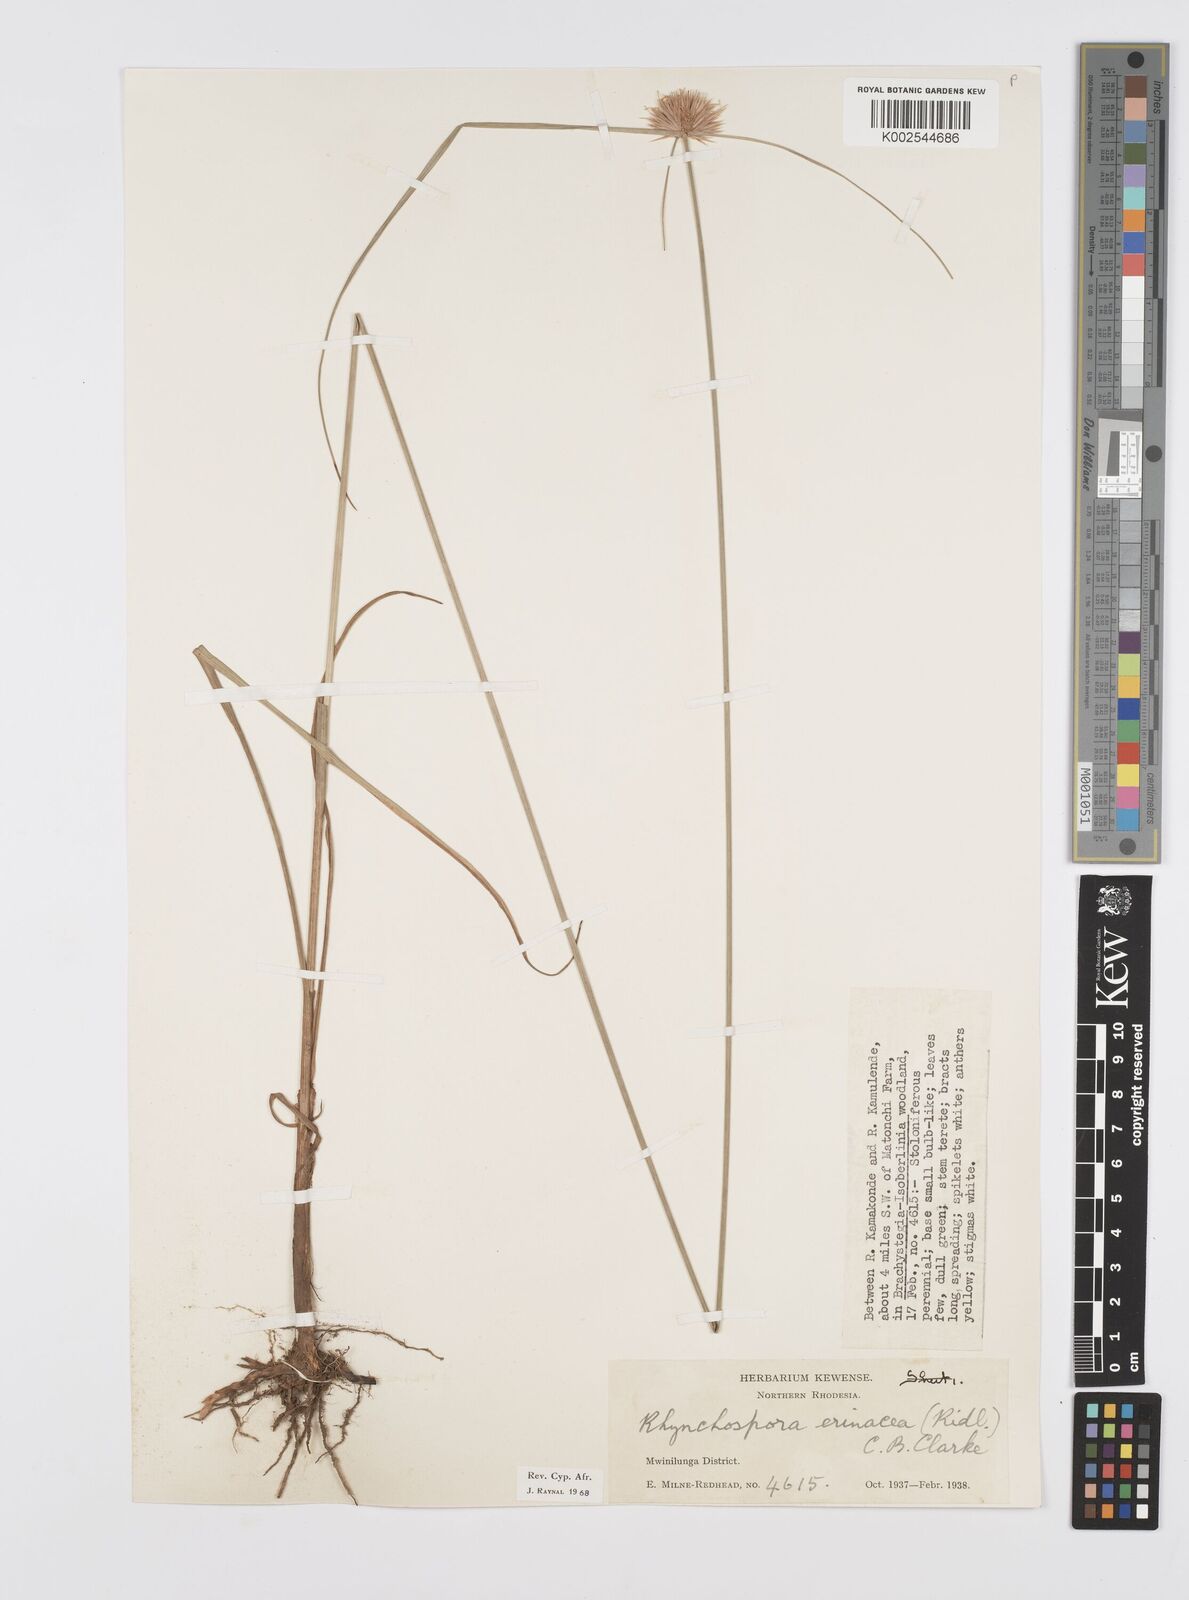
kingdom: Plantae
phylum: Tracheophyta
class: Liliopsida
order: Poales
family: Cyperaceae
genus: Cyperus
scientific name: Cyperus erinaceus
